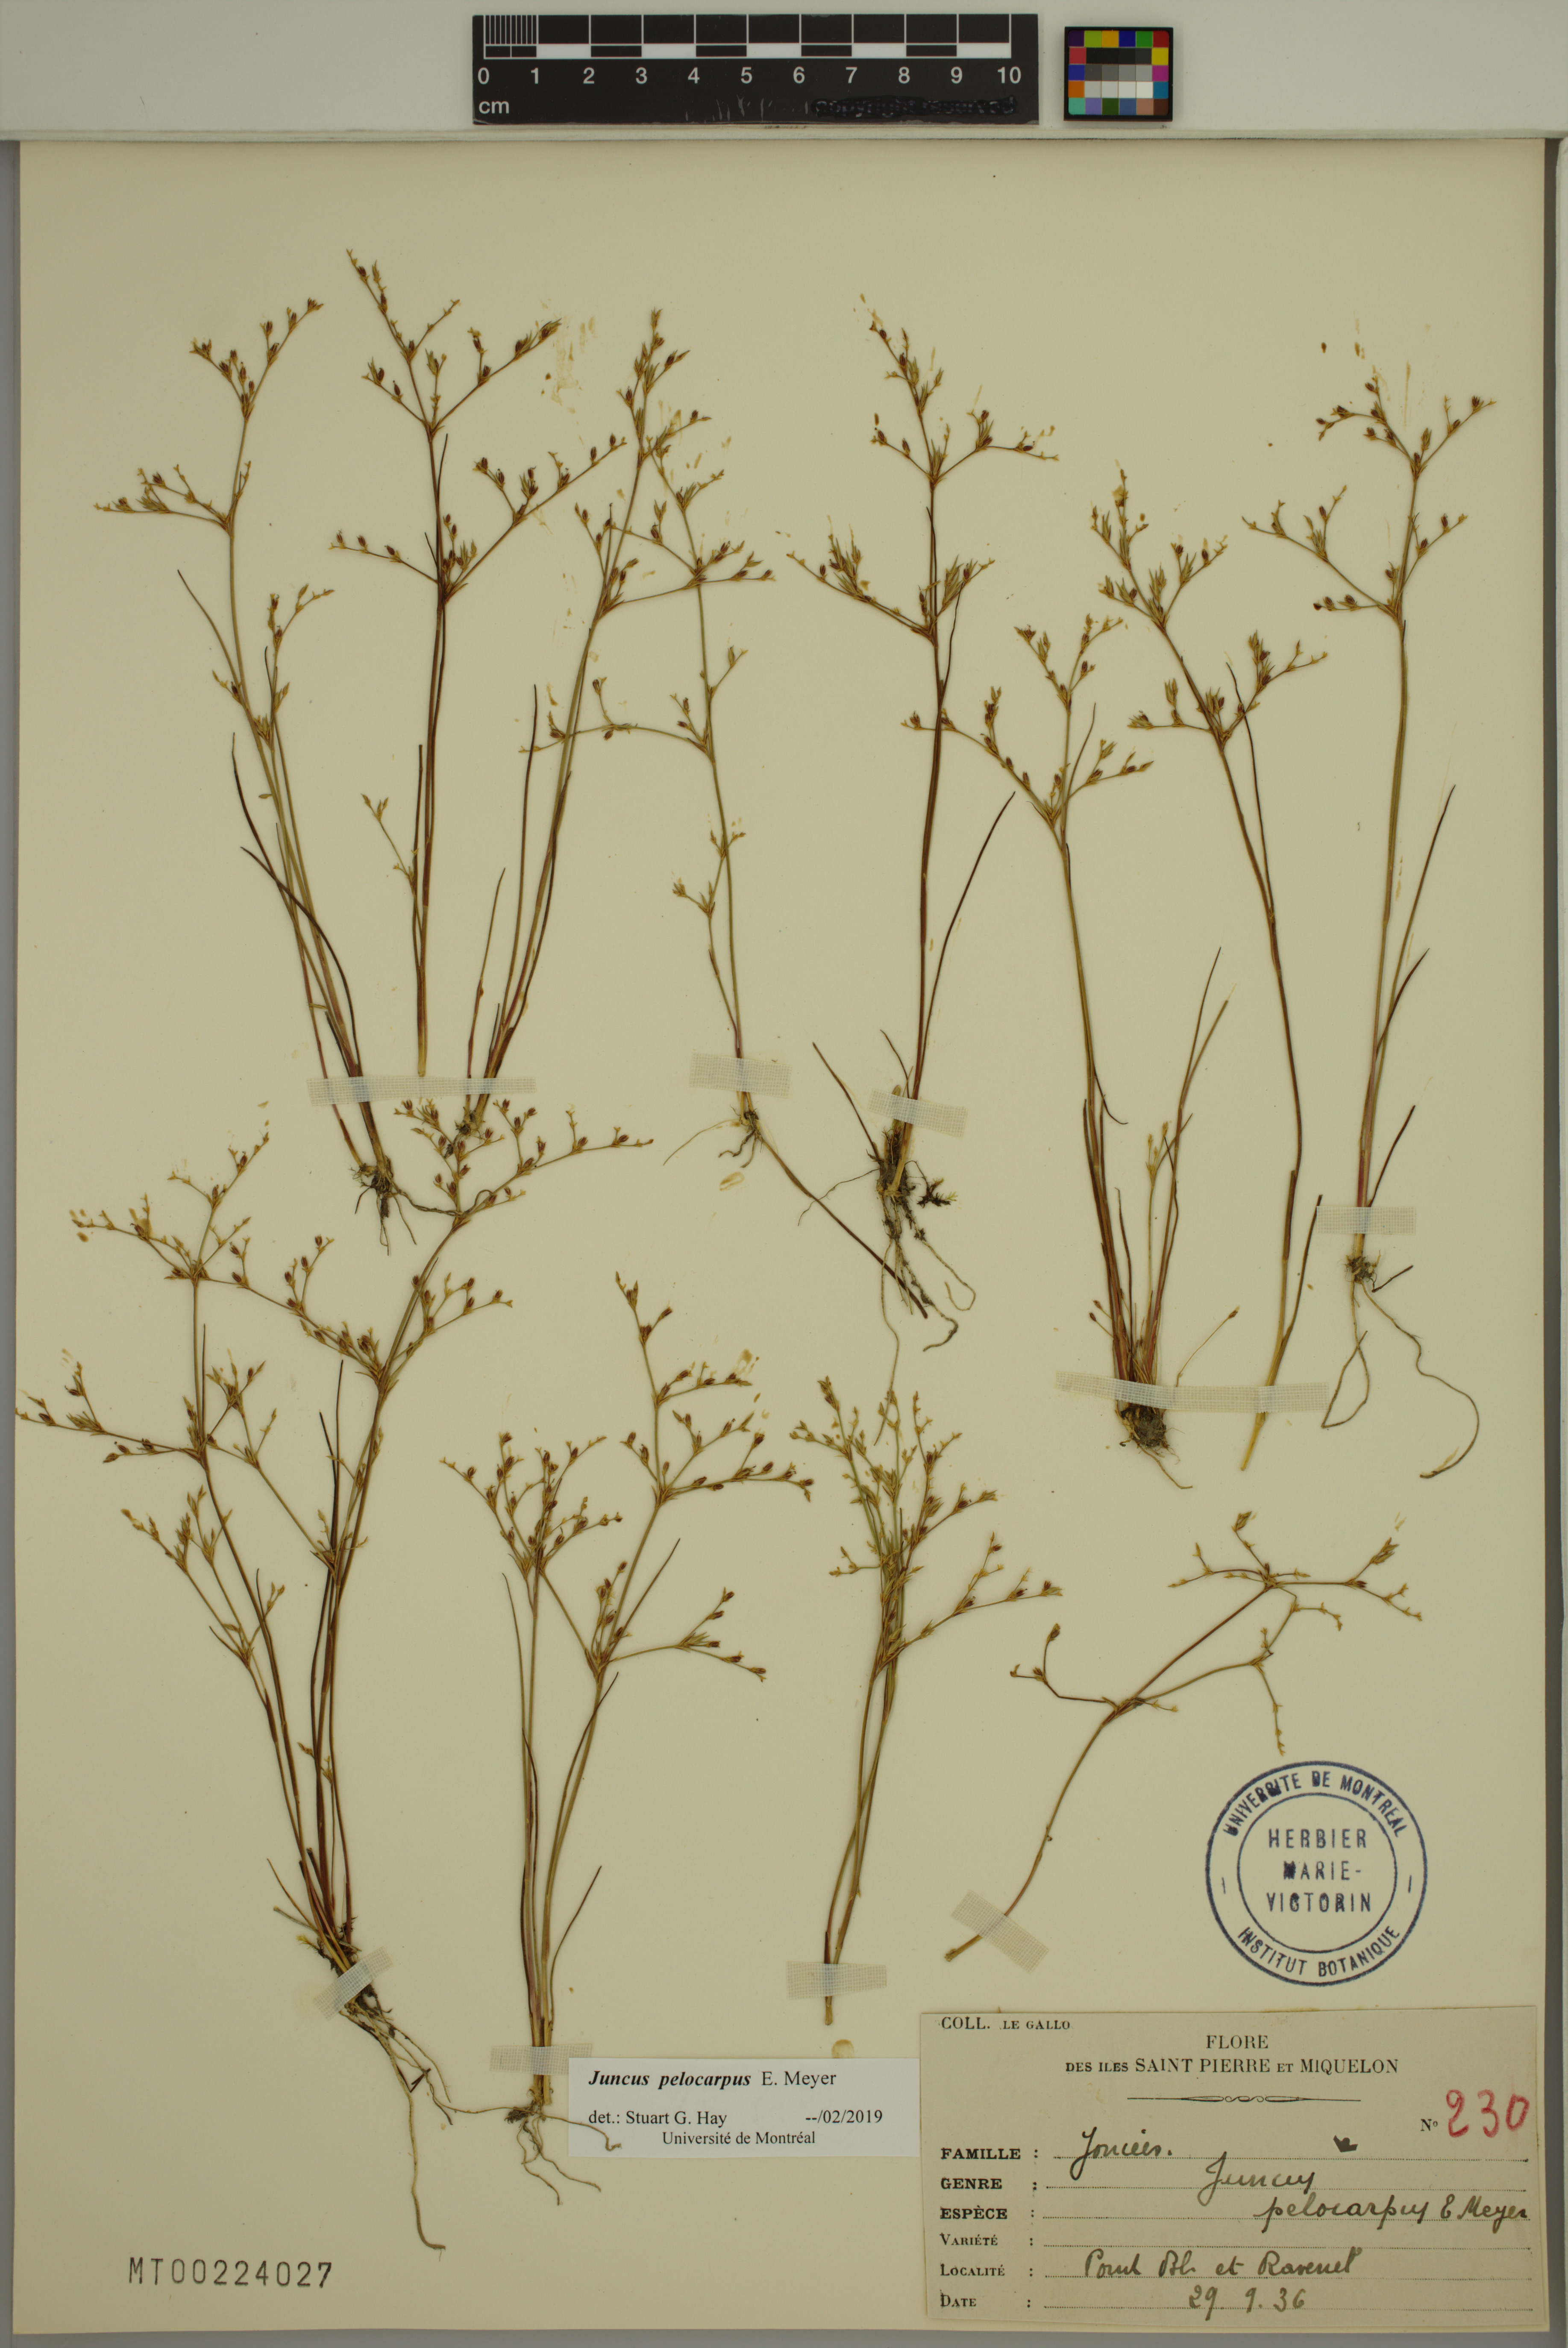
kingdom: Plantae
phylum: Tracheophyta
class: Liliopsida
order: Poales
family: Juncaceae
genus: Juncus
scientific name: Juncus pelocarpus
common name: Brown-fruited rush
